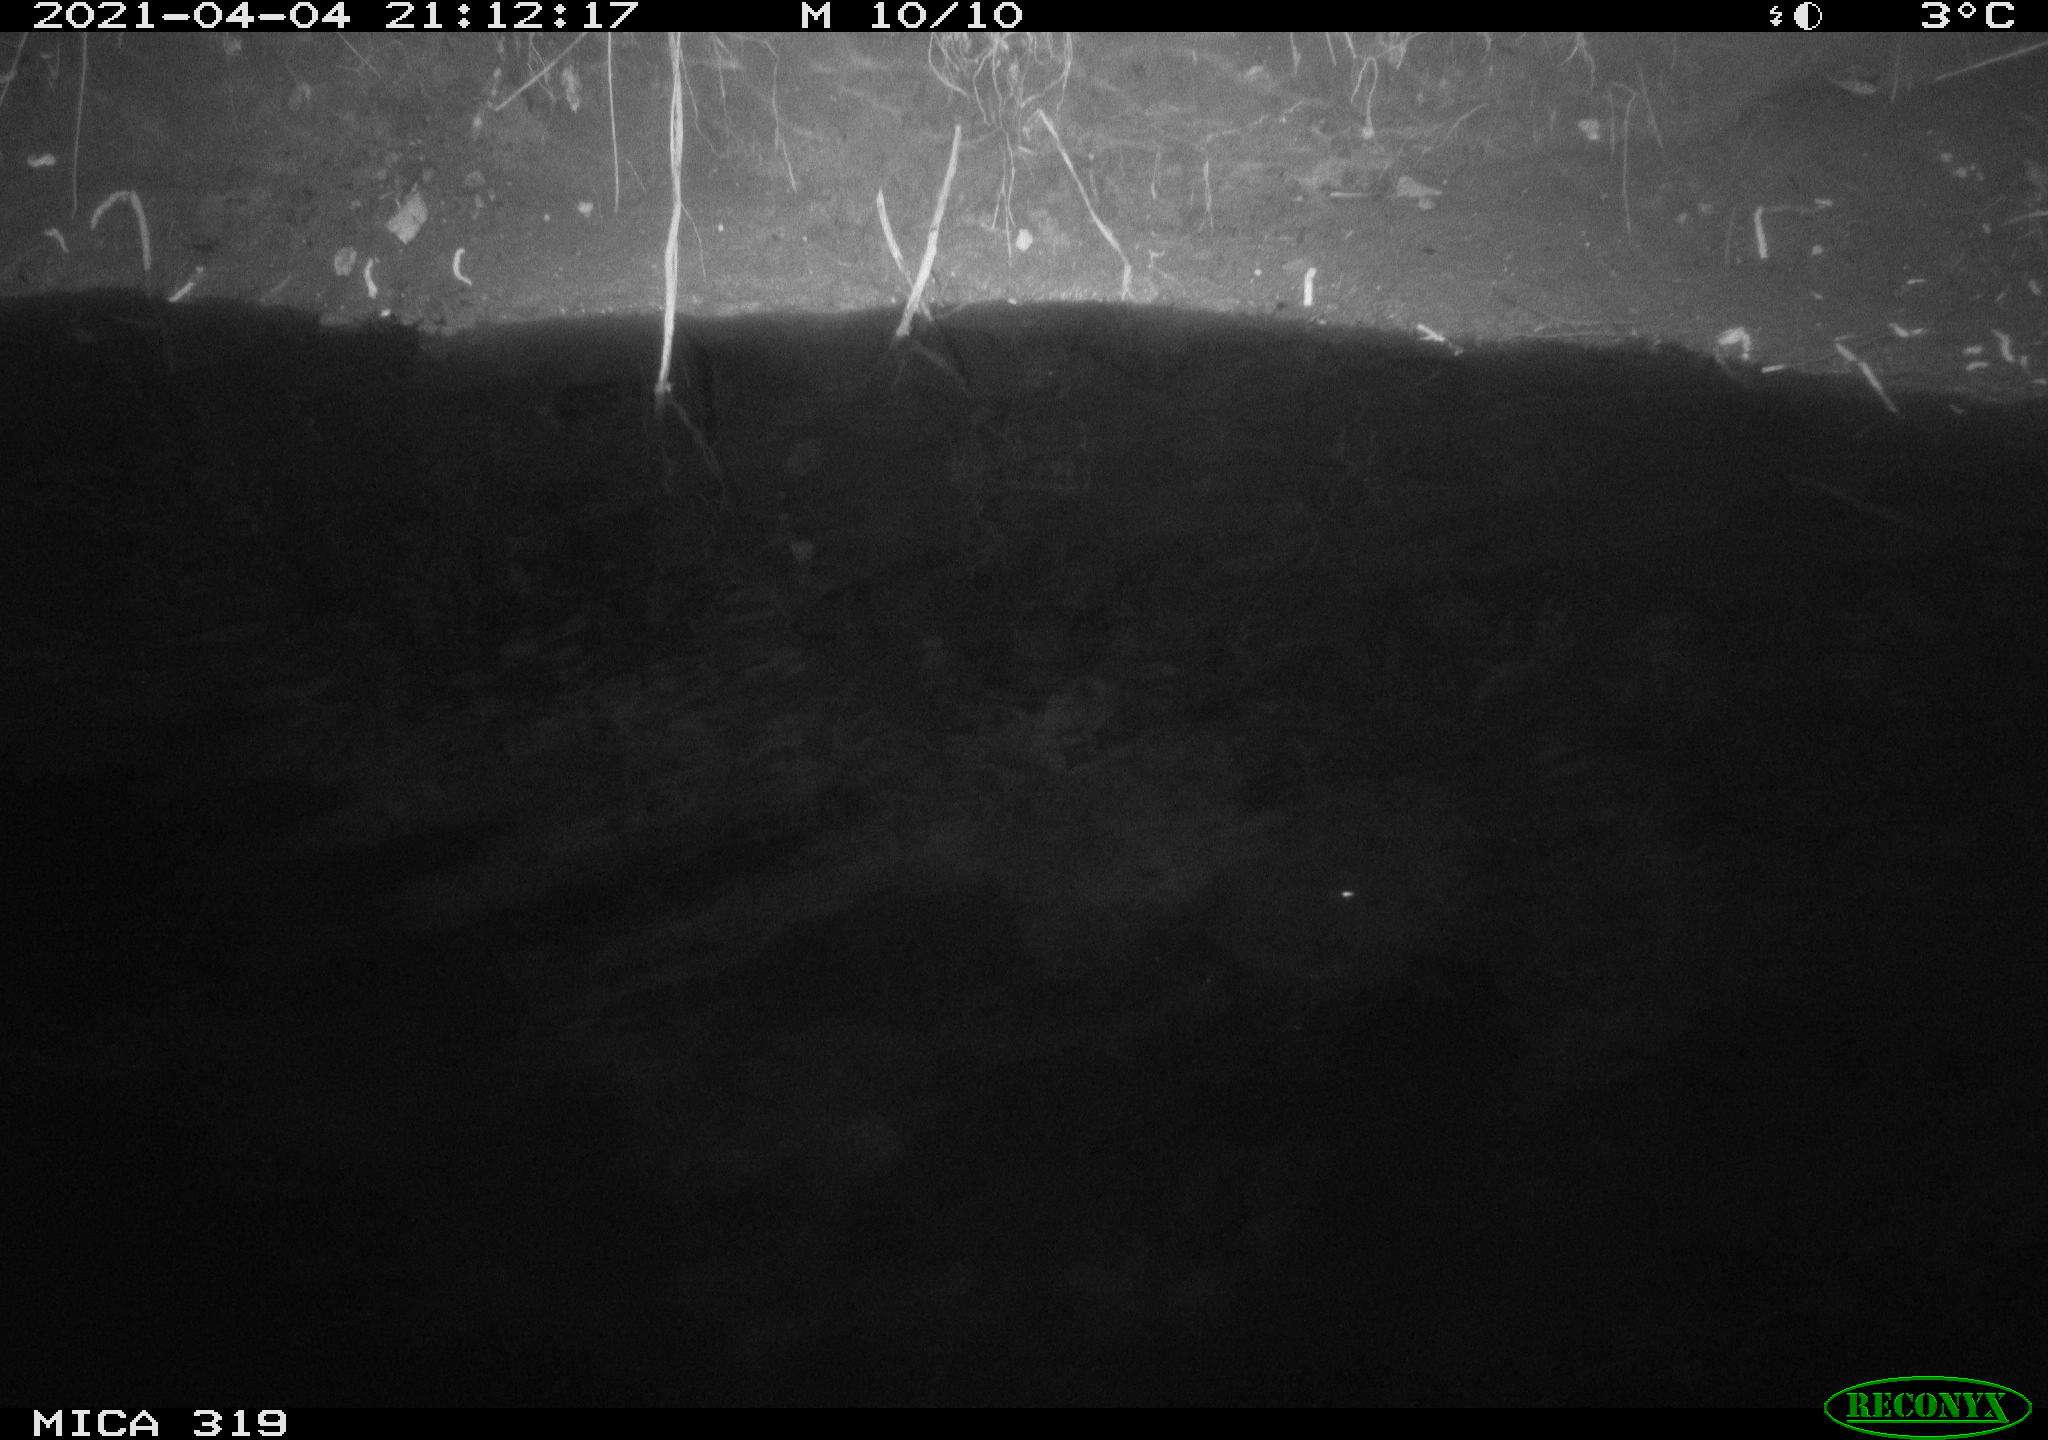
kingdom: Animalia
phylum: Chordata
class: Aves
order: Anseriformes
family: Anatidae
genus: Anas
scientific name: Anas platyrhynchos
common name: Mallard
